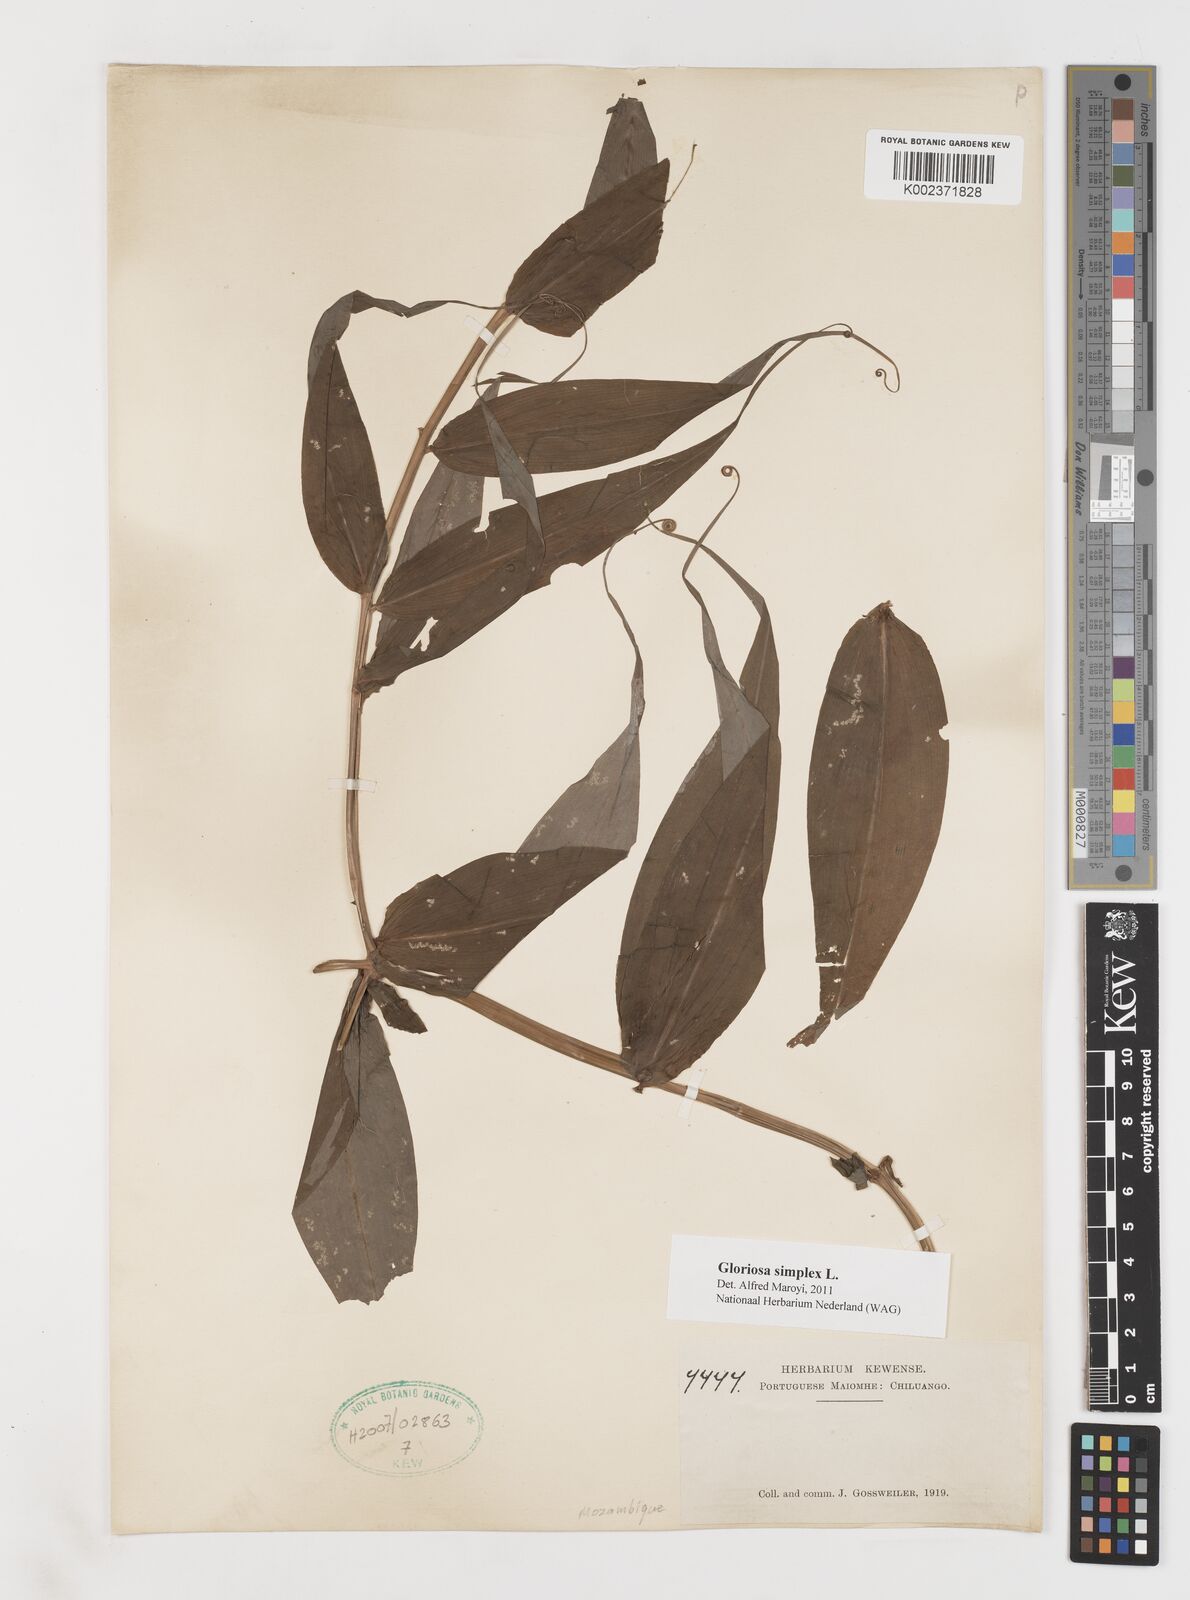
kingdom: Plantae
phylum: Tracheophyta
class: Liliopsida
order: Liliales
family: Colchicaceae
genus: Gloriosa
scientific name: Gloriosa simplex
